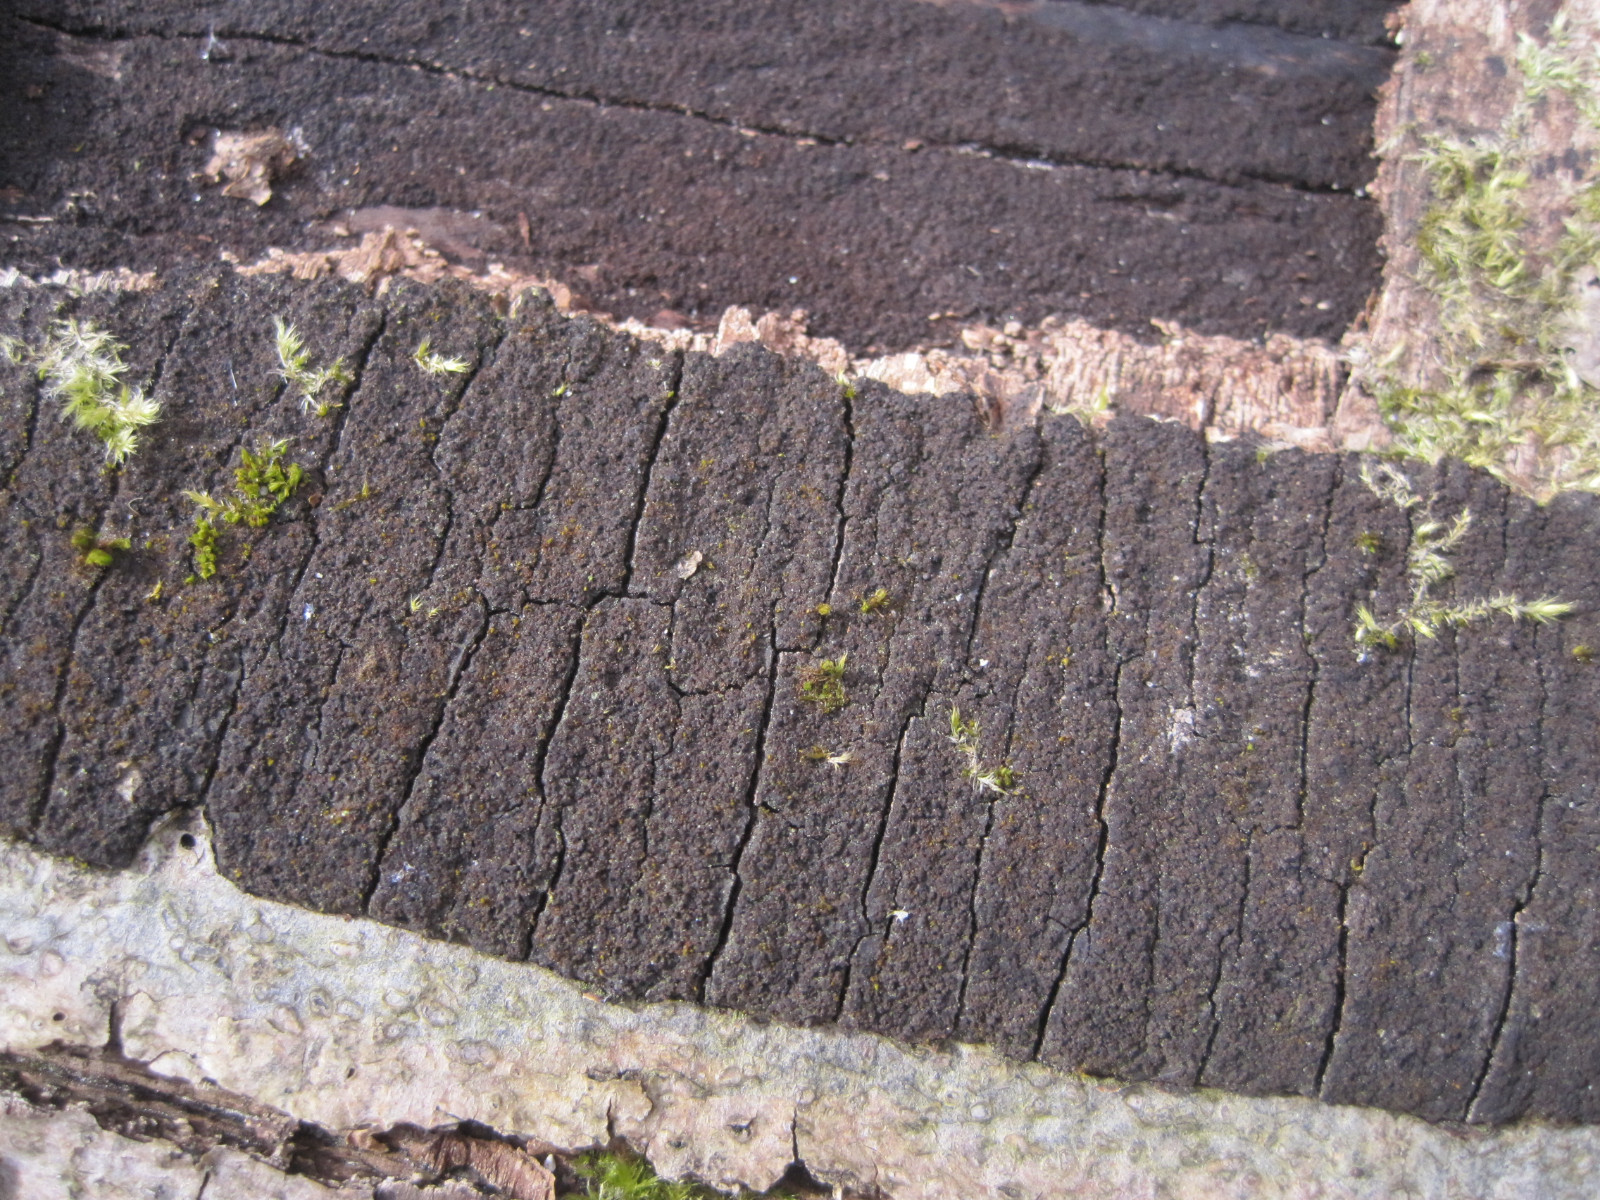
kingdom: Fungi
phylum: Ascomycota
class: Sordariomycetes
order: Xylariales
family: Diatrypaceae
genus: Eutypa
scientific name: Eutypa spinosa
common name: grov kulskorpe
